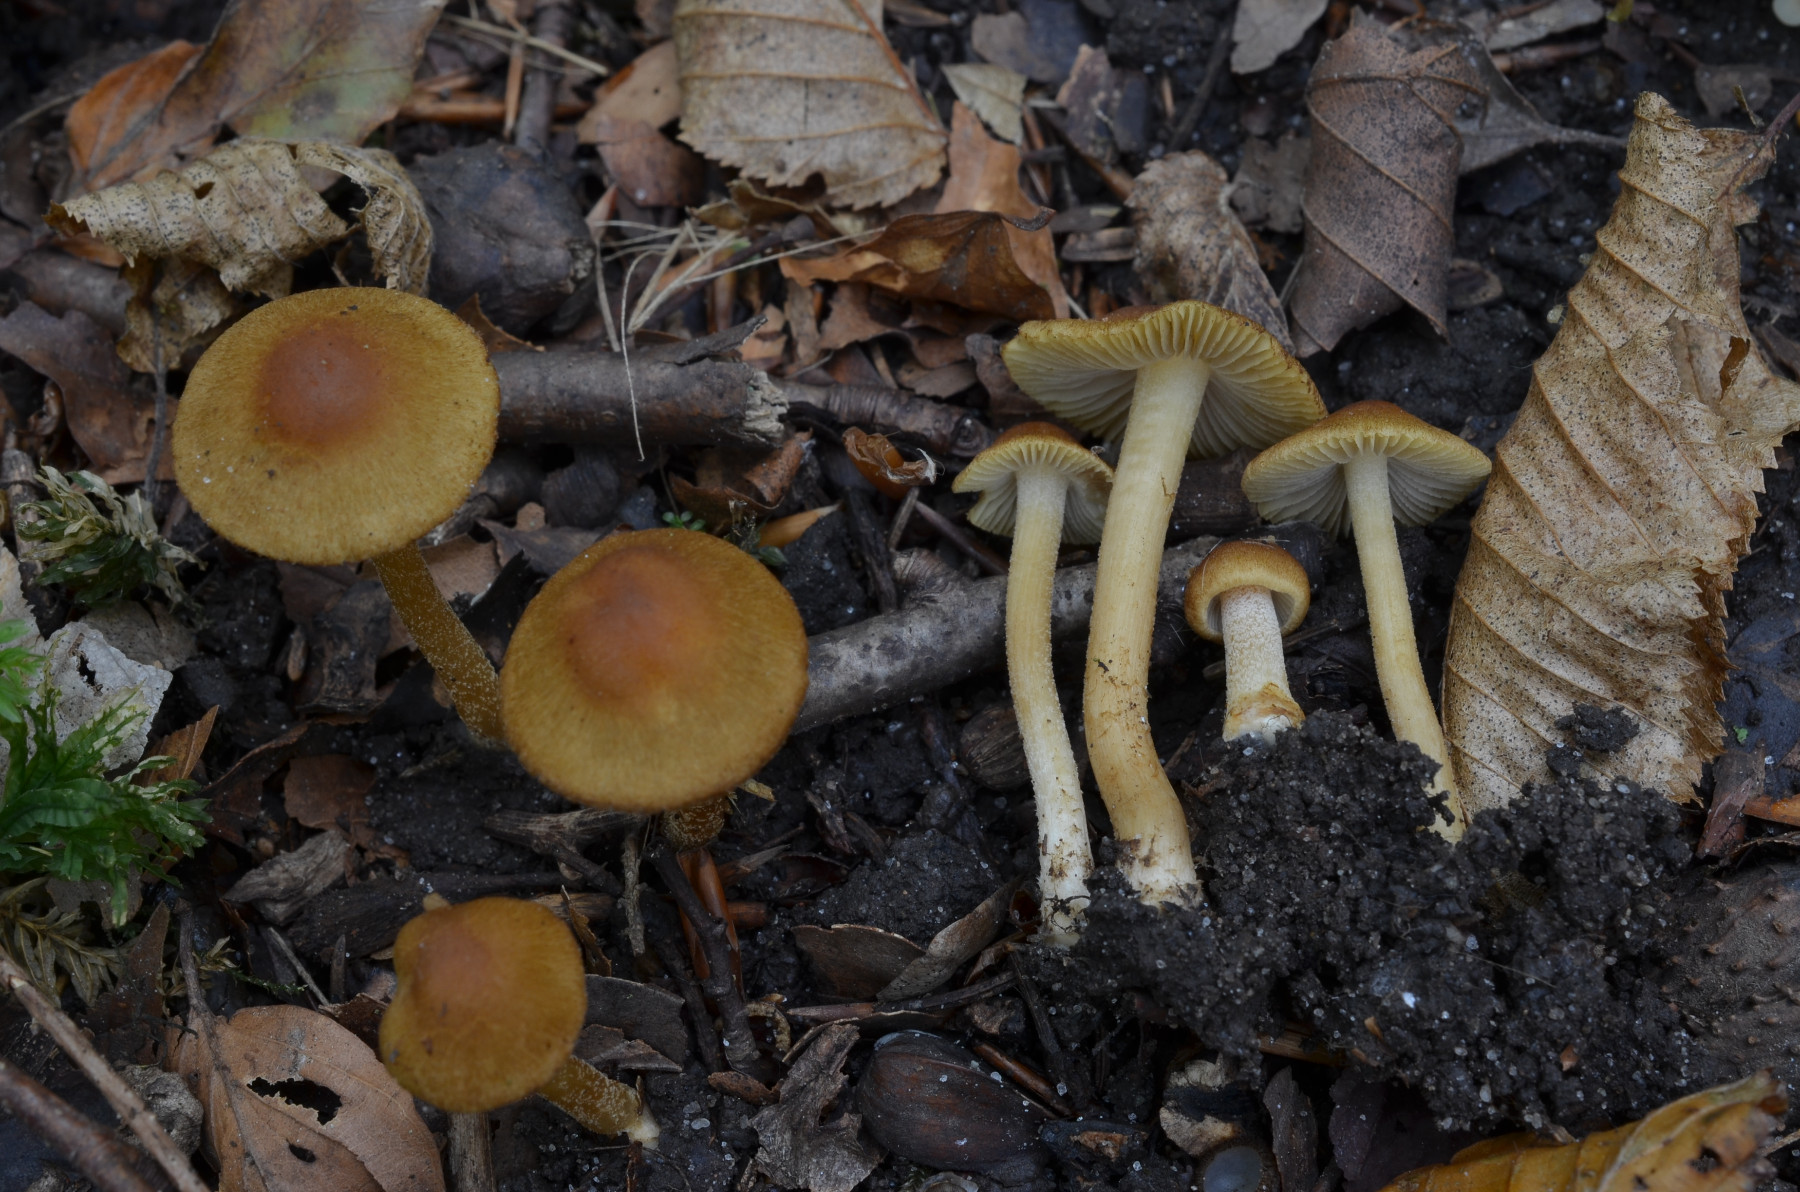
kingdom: Fungi
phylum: Basidiomycota
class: Agaricomycetes
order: Agaricales
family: Inocybaceae
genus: Inocybe
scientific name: Inocybe orioli
